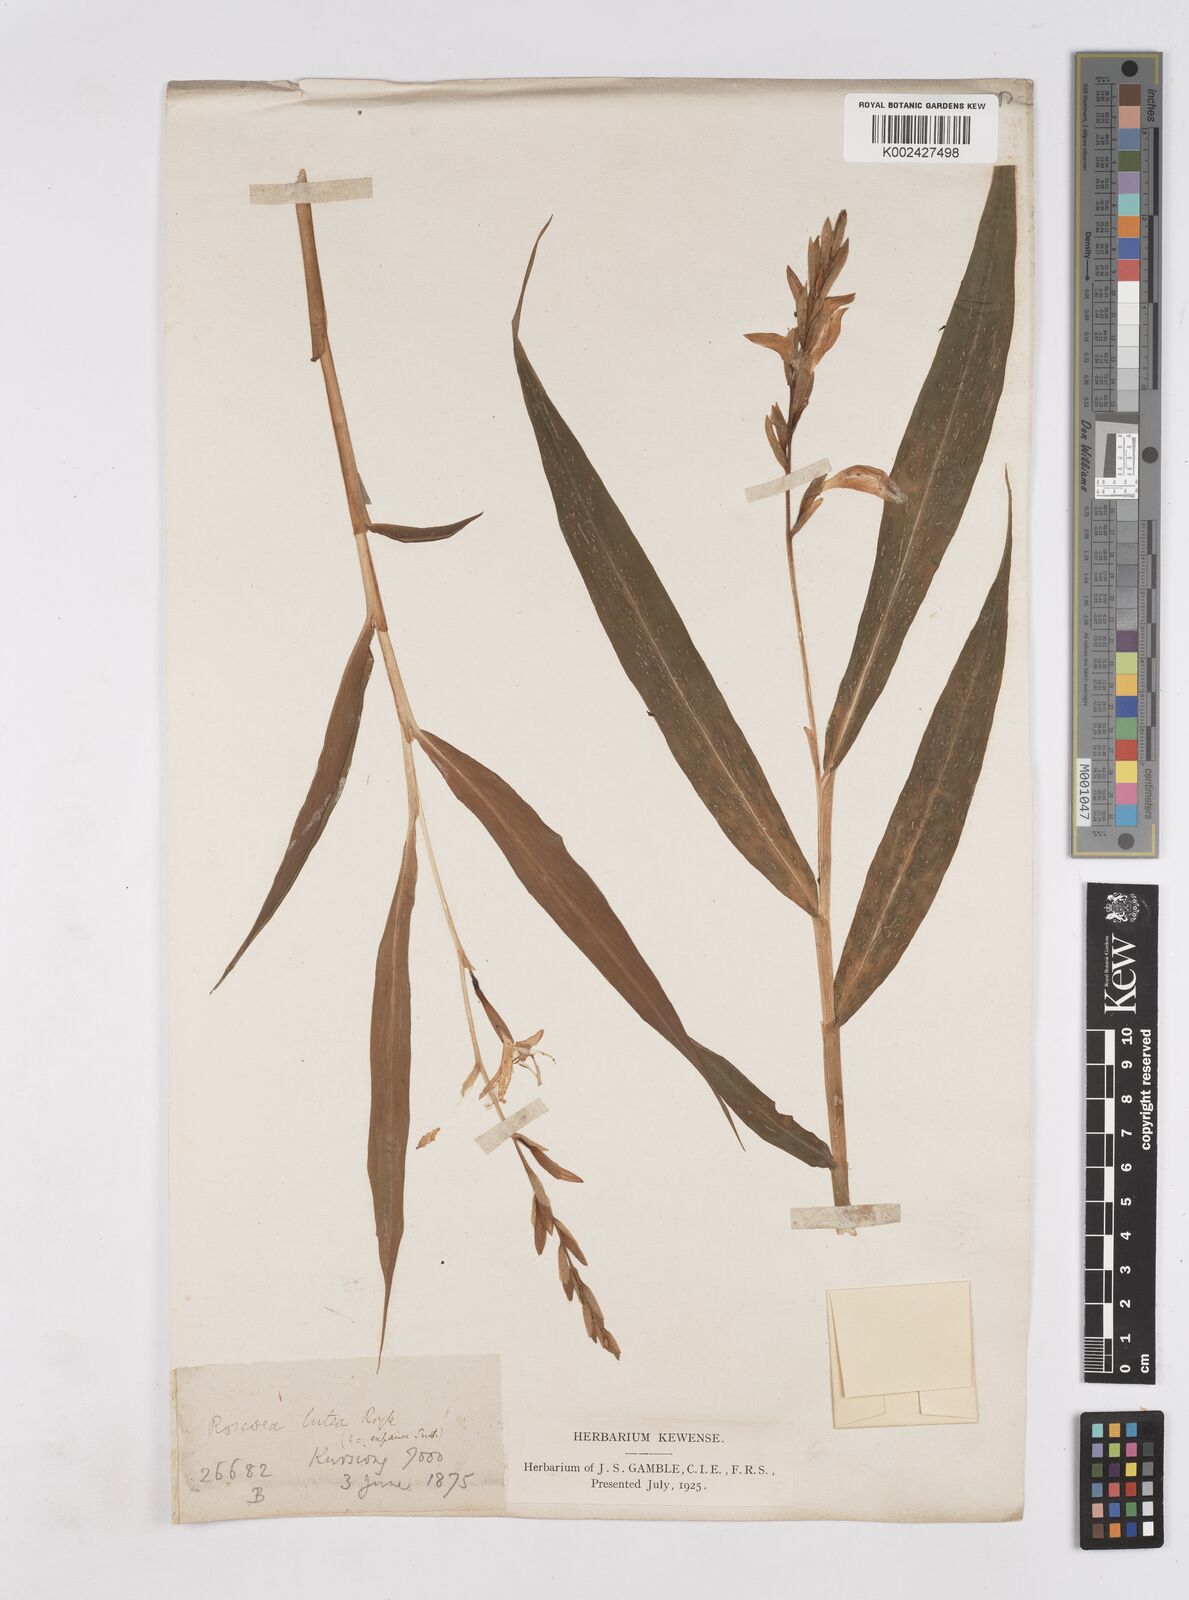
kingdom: Plantae
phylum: Tracheophyta
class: Liliopsida
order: Zingiberales
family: Zingiberaceae
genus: Cautleya
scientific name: Cautleya gracilis
